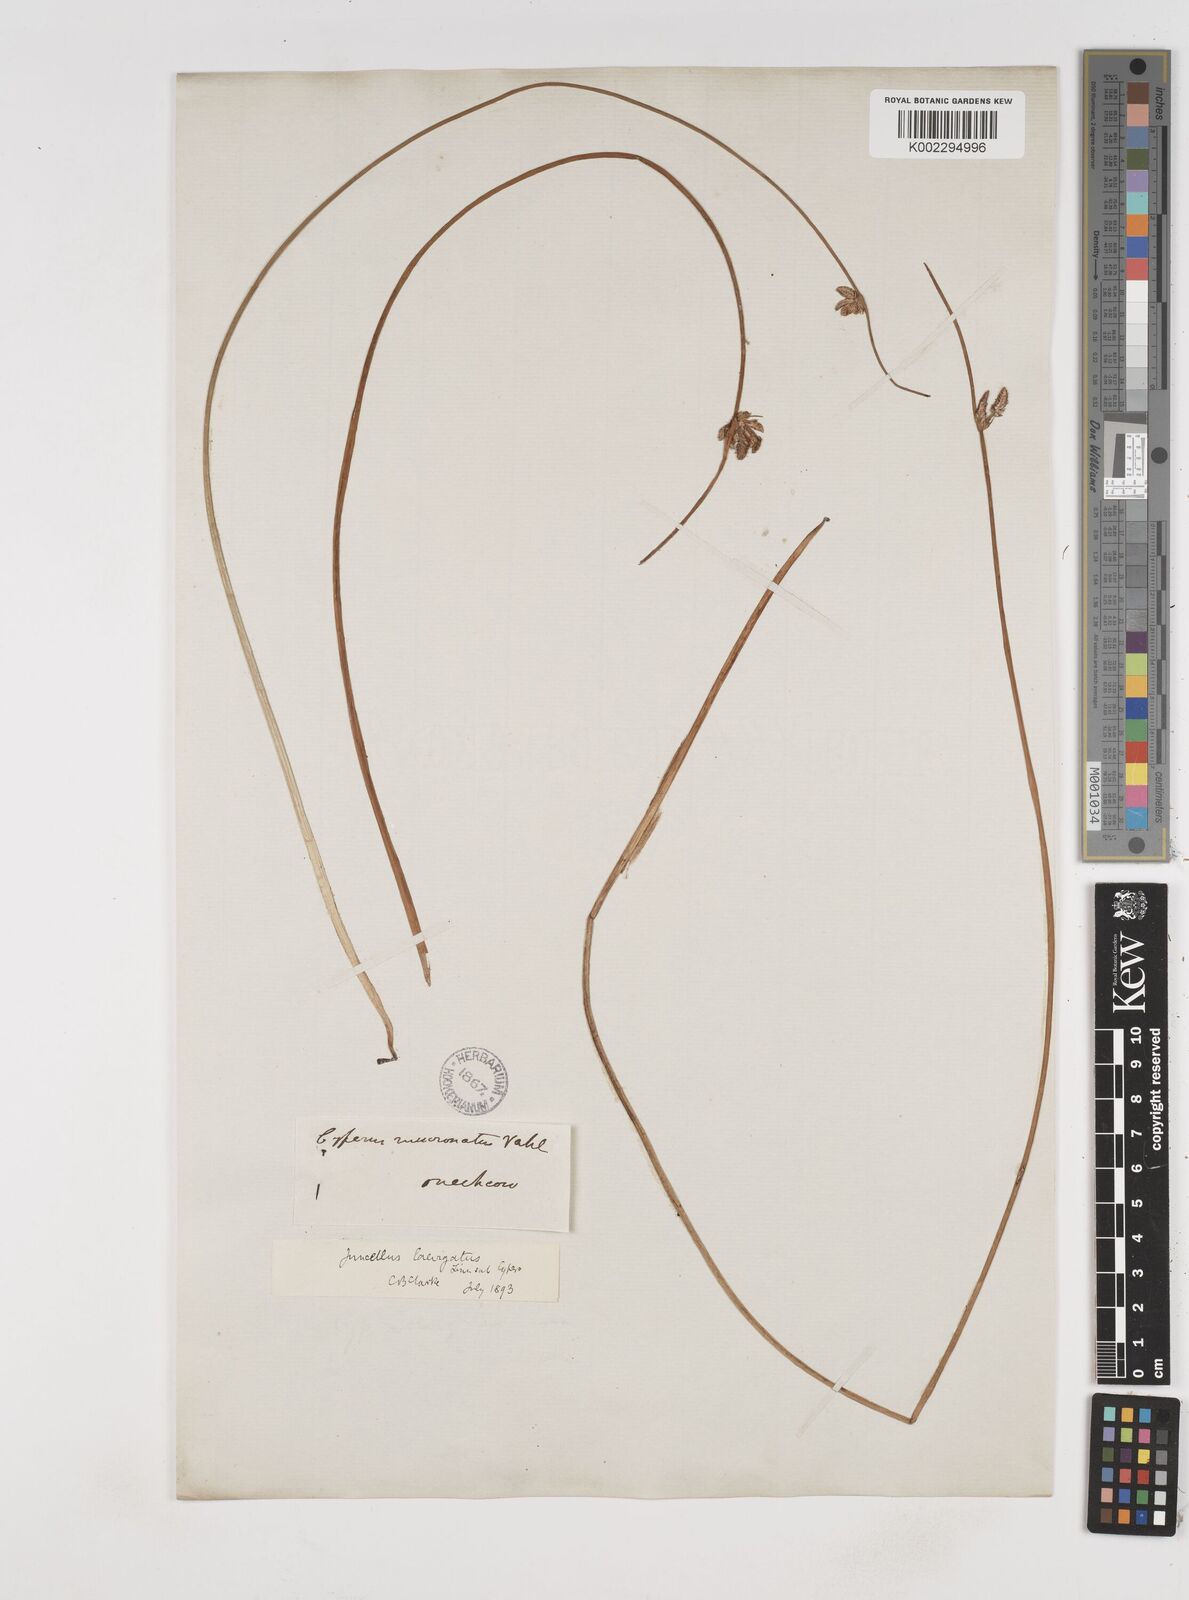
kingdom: Plantae
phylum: Tracheophyta
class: Liliopsida
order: Poales
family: Cyperaceae
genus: Cyperus
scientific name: Cyperus laevigatus
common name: Smooth flat sedge
